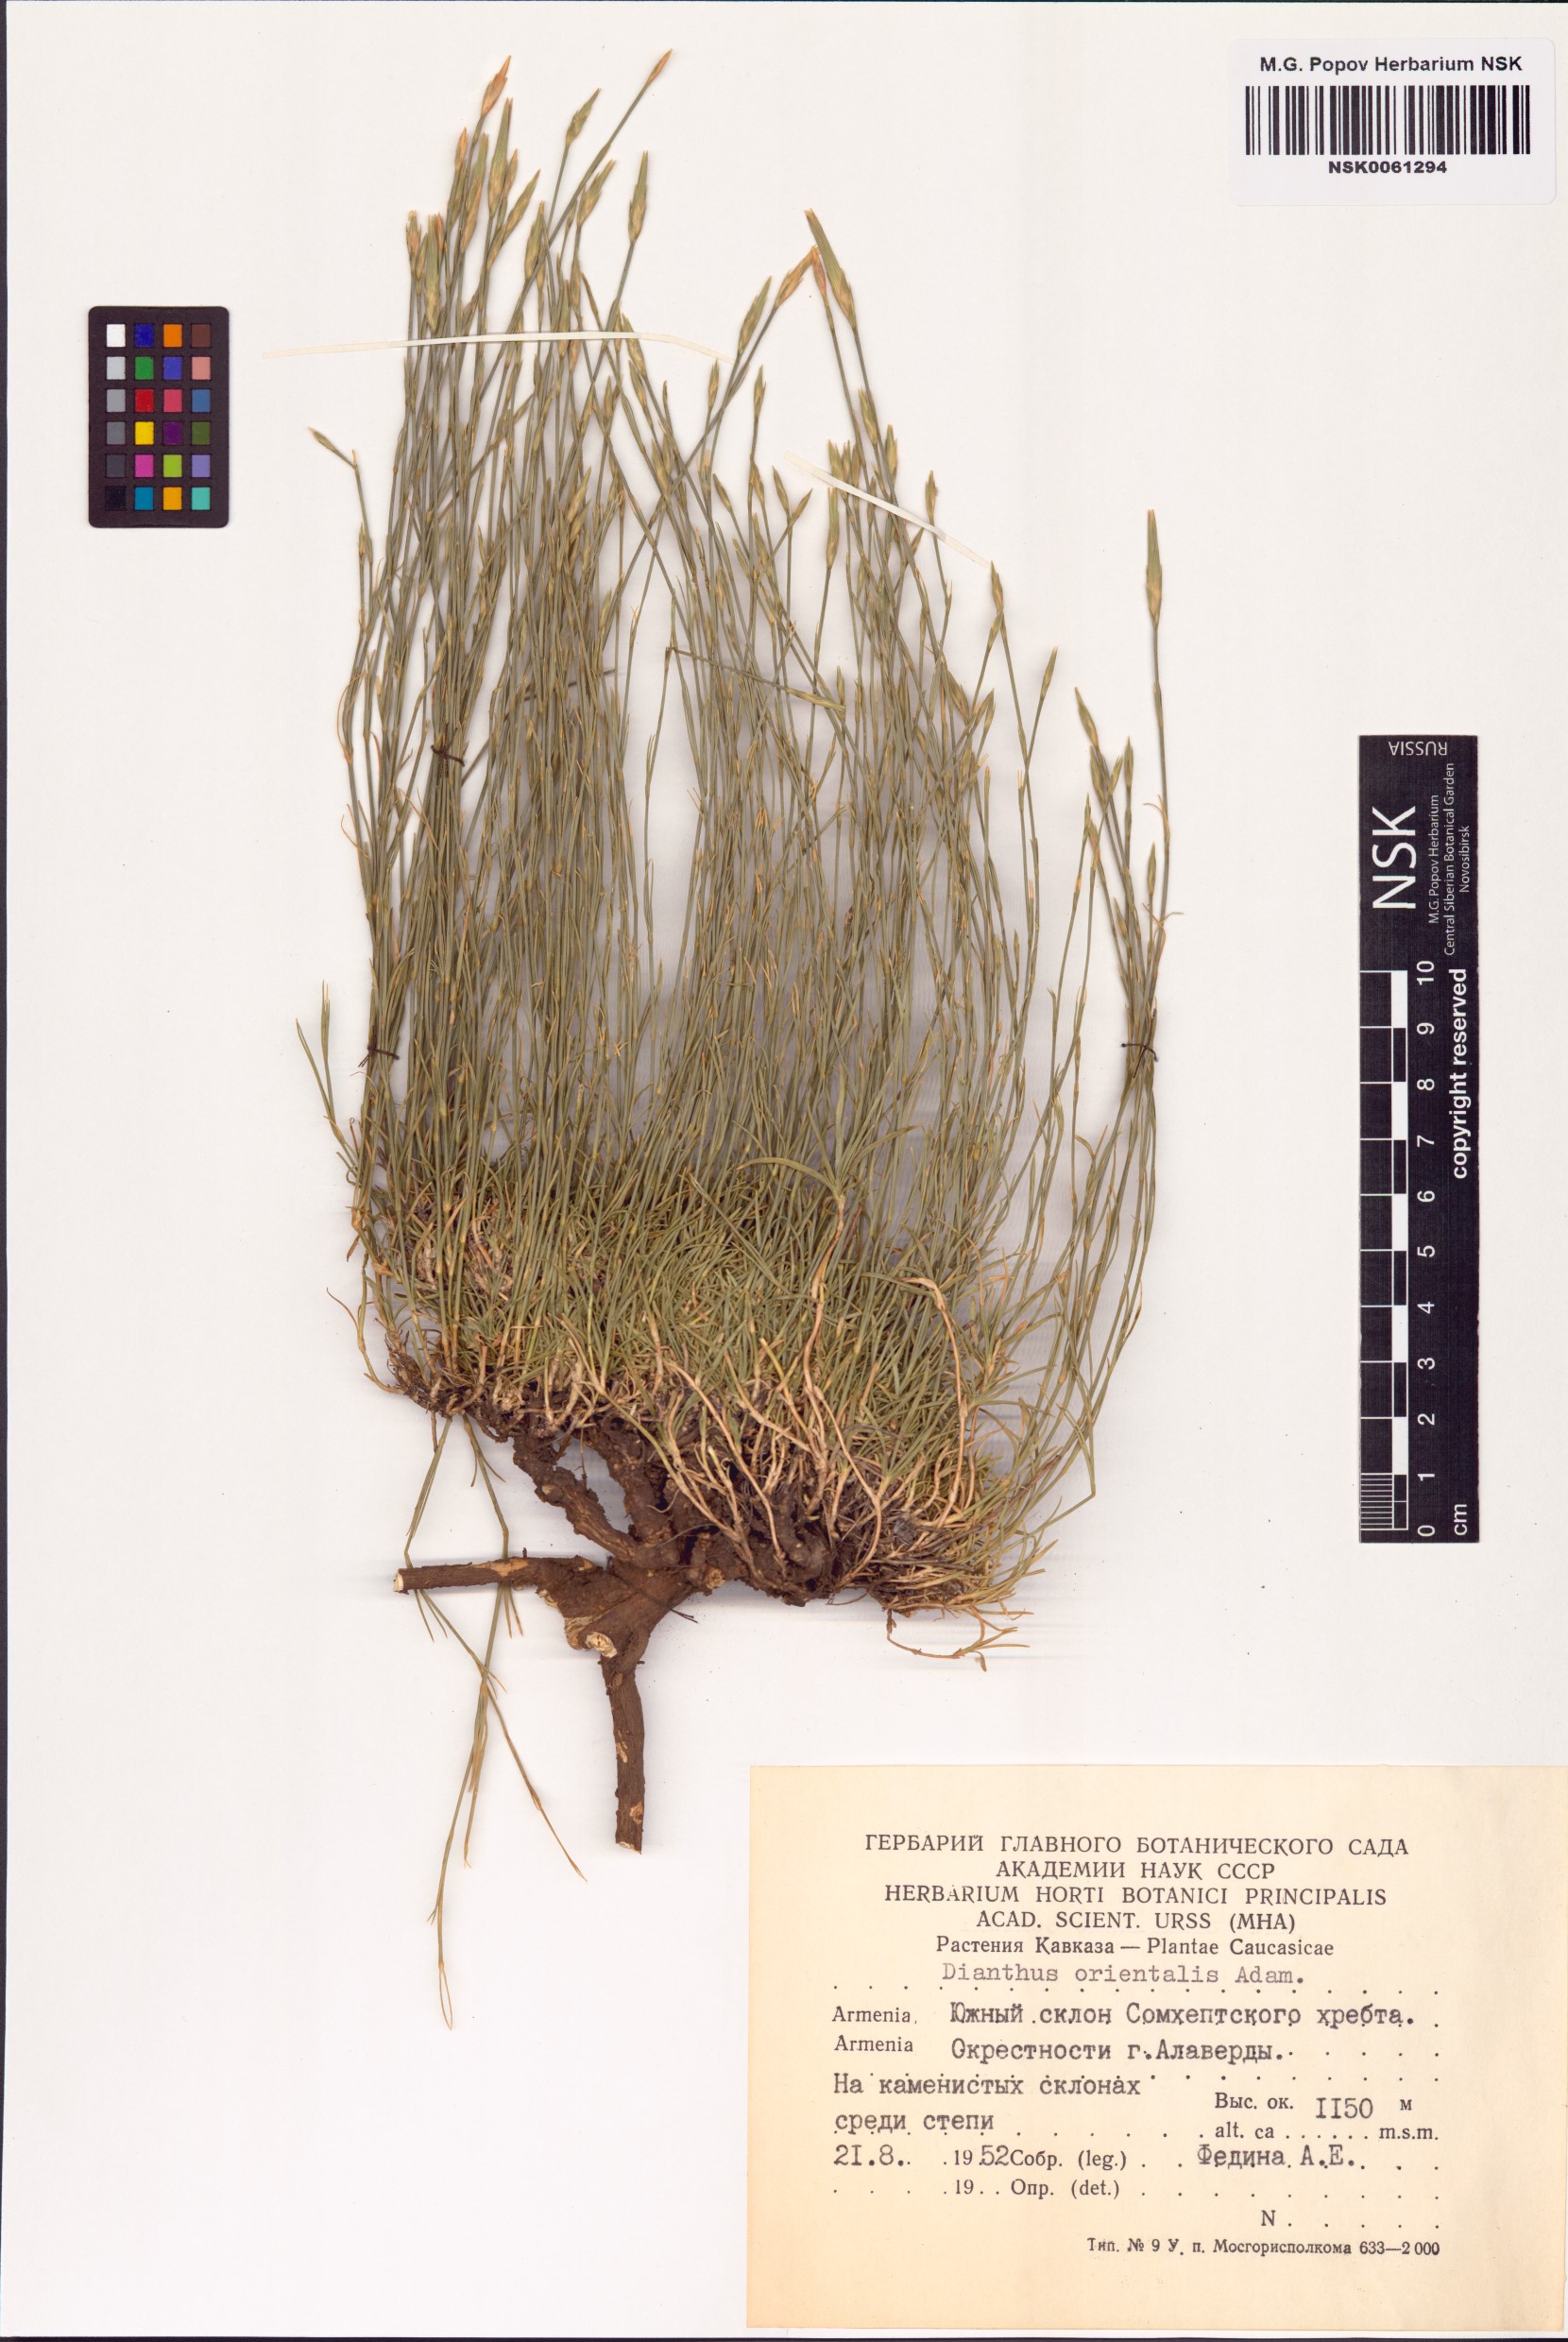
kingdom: Plantae
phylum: Tracheophyta
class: Magnoliopsida
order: Caryophyllales
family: Caryophyllaceae
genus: Dianthus
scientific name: Dianthus orientalis
